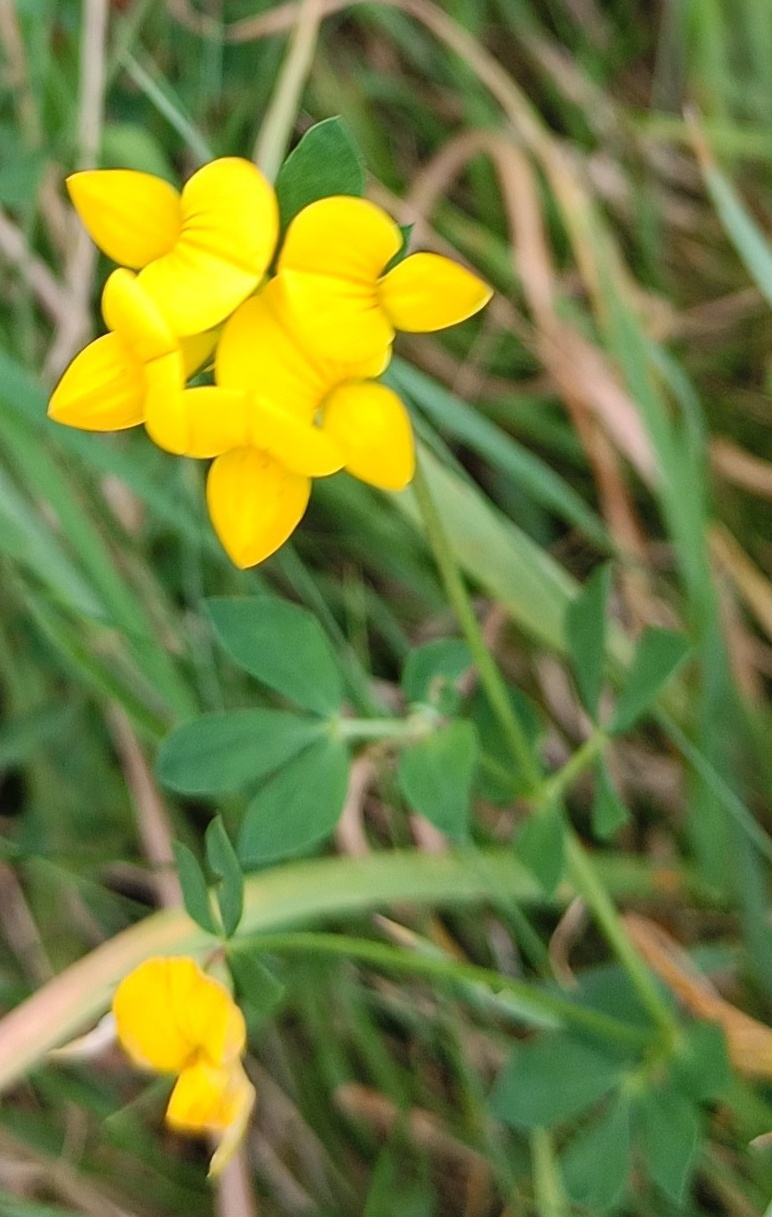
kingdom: Plantae
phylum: Tracheophyta
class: Magnoliopsida
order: Fabales
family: Fabaceae
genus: Lotus
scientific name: Lotus corniculatus
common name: Almindelig kællingetand
